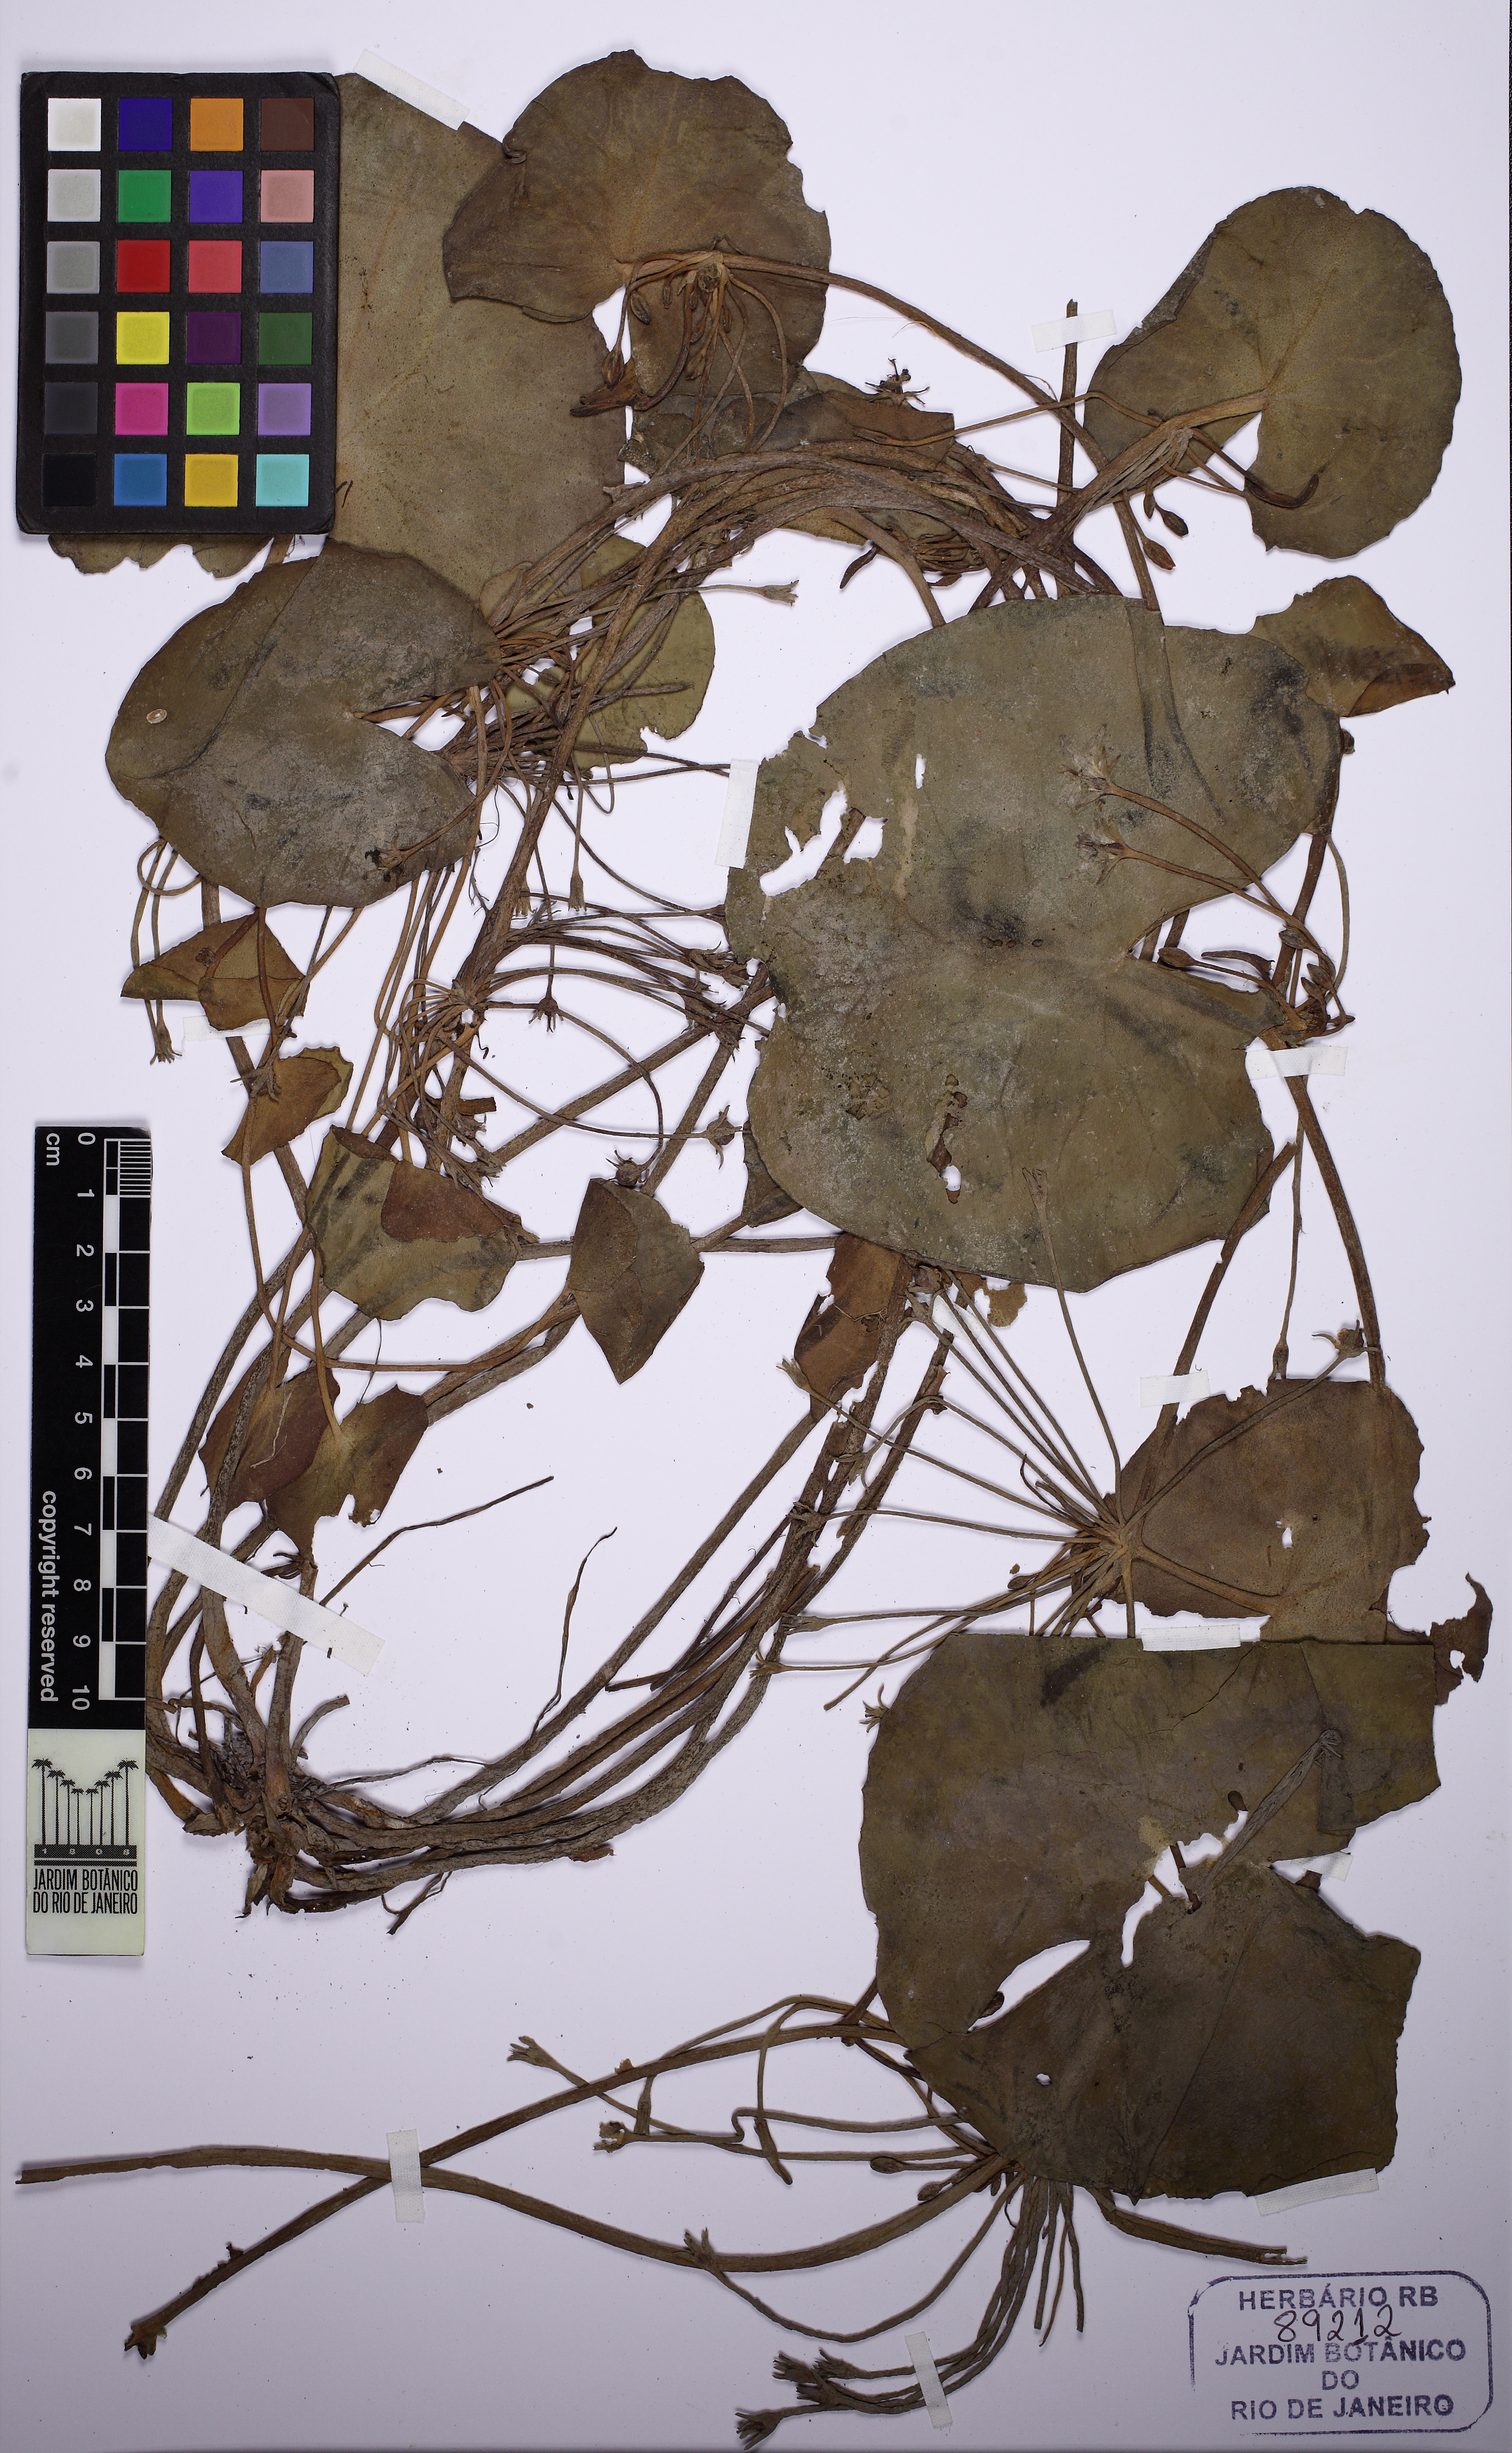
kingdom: Plantae
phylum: Tracheophyta
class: Magnoliopsida
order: Asterales
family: Menyanthaceae
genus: Nymphoides
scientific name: Nymphoides indica
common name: Water-snowflake
